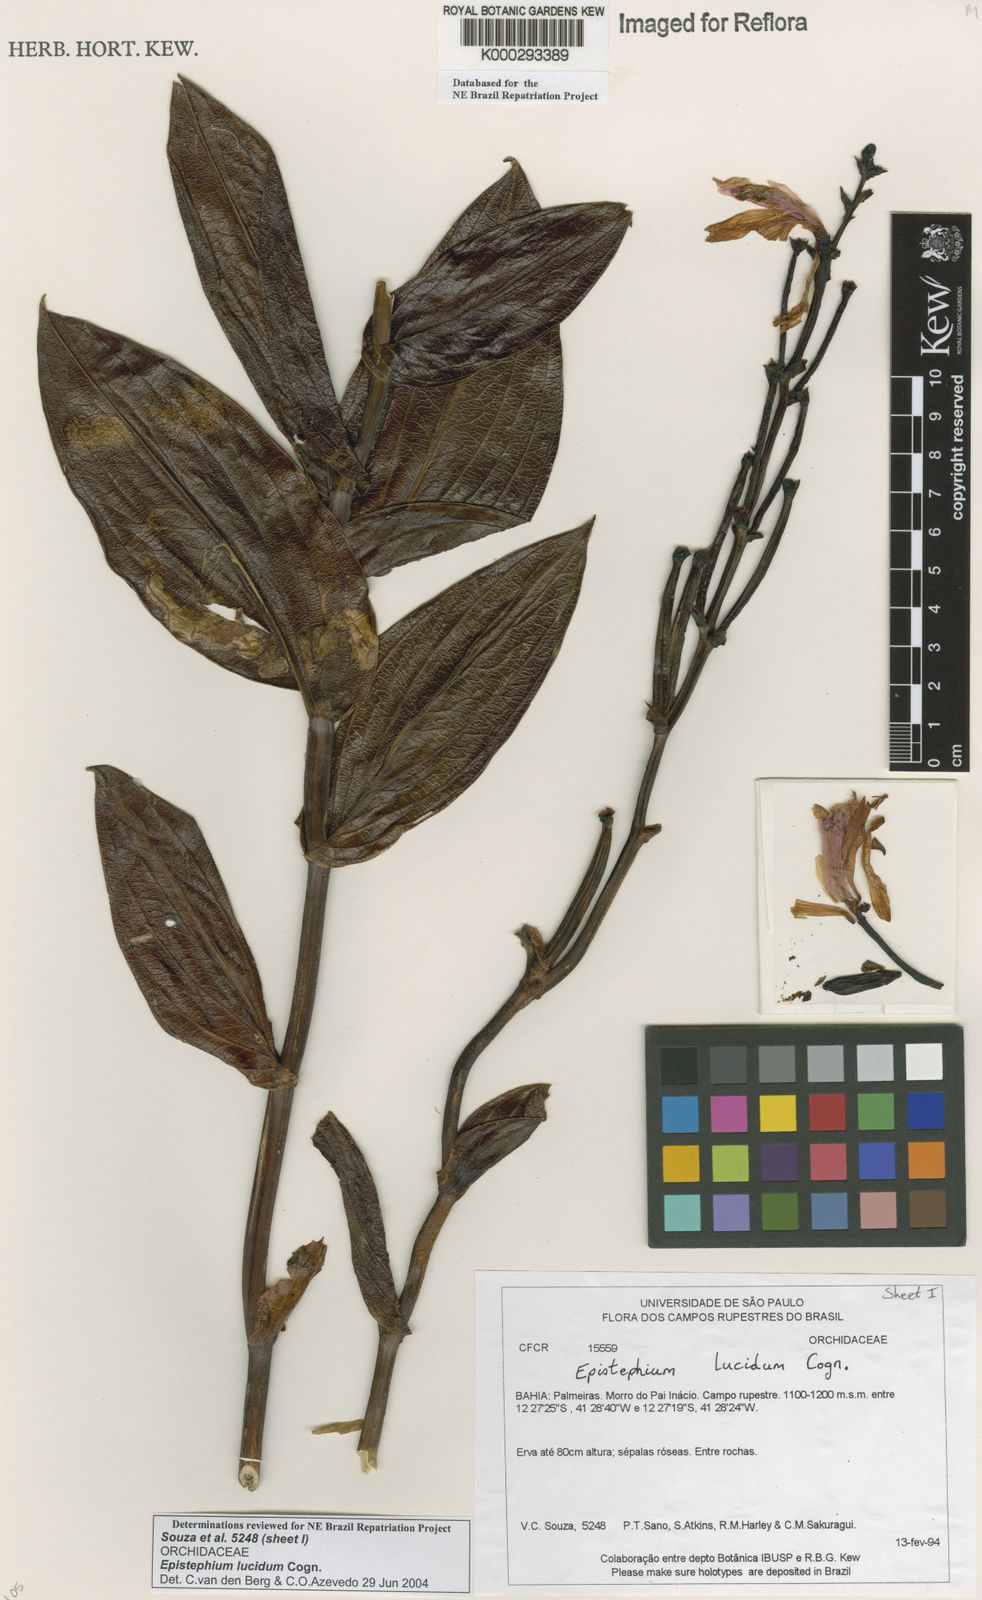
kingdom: Plantae
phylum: Tracheophyta
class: Liliopsida
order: Asparagales
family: Orchidaceae
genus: Epistephium
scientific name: Epistephium williamsii
